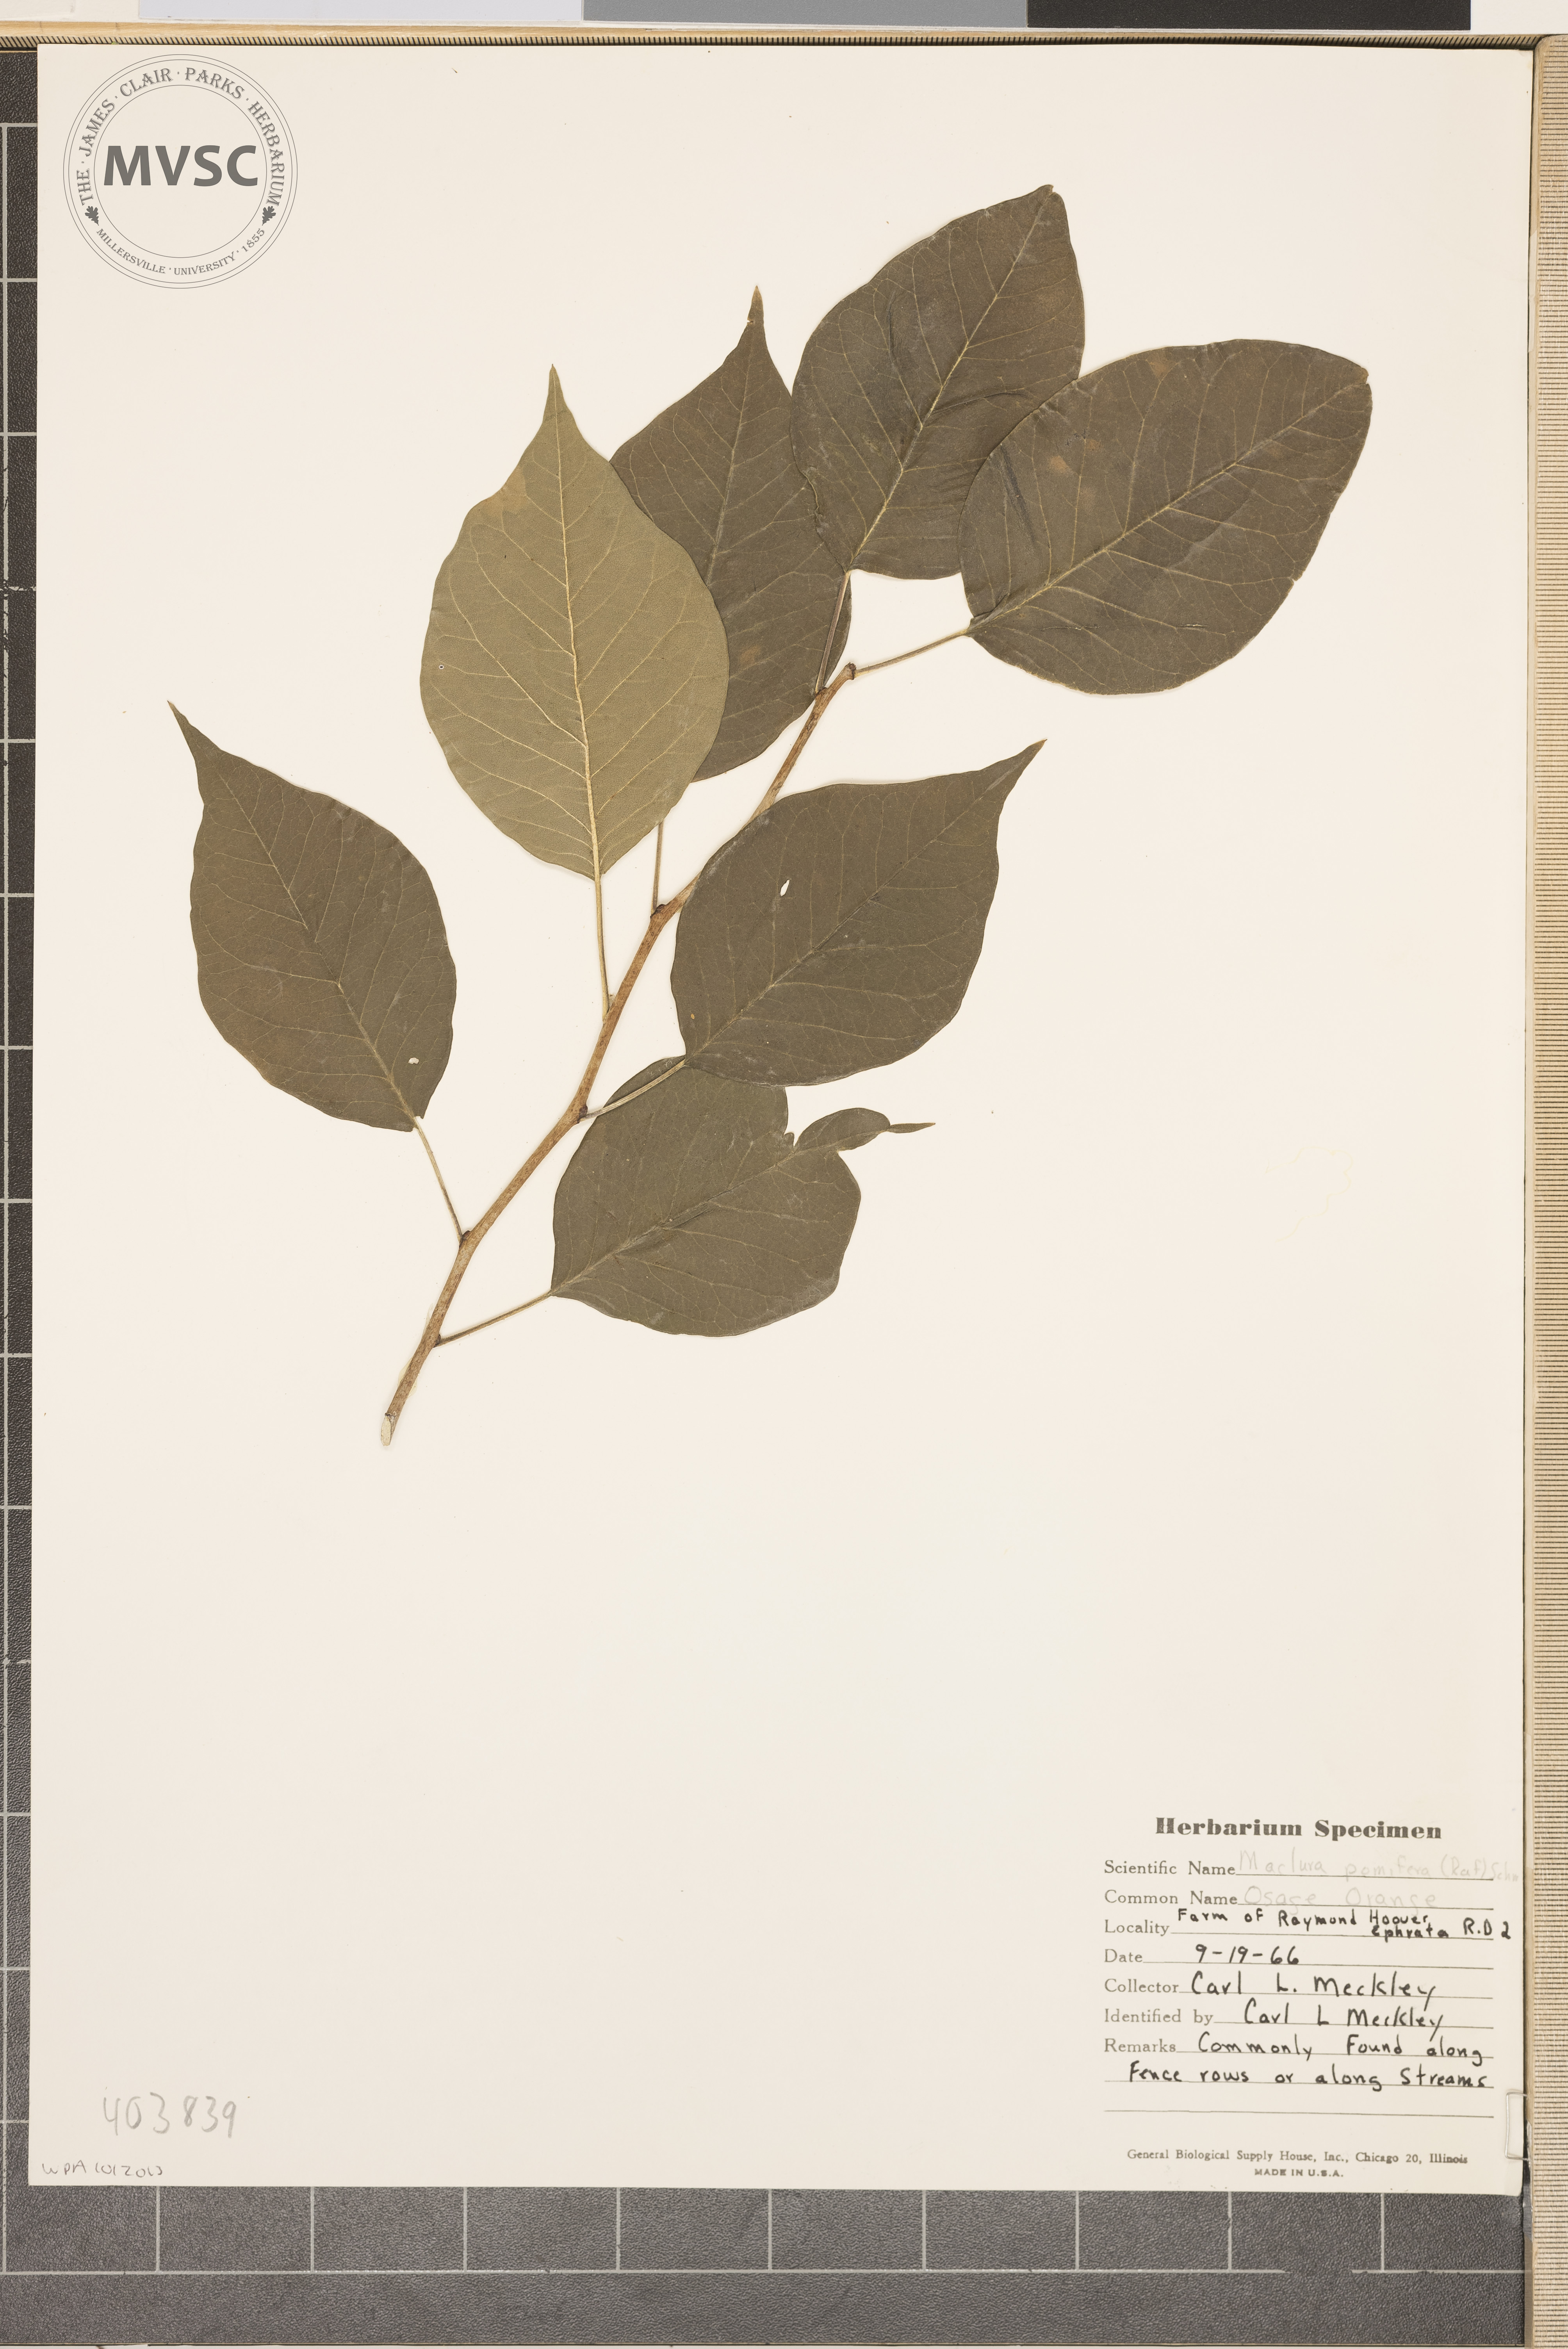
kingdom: Plantae
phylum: Tracheophyta
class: Magnoliopsida
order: Rosales
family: Moraceae
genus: Maclura
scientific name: Maclura pomifera
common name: Osage Orange
